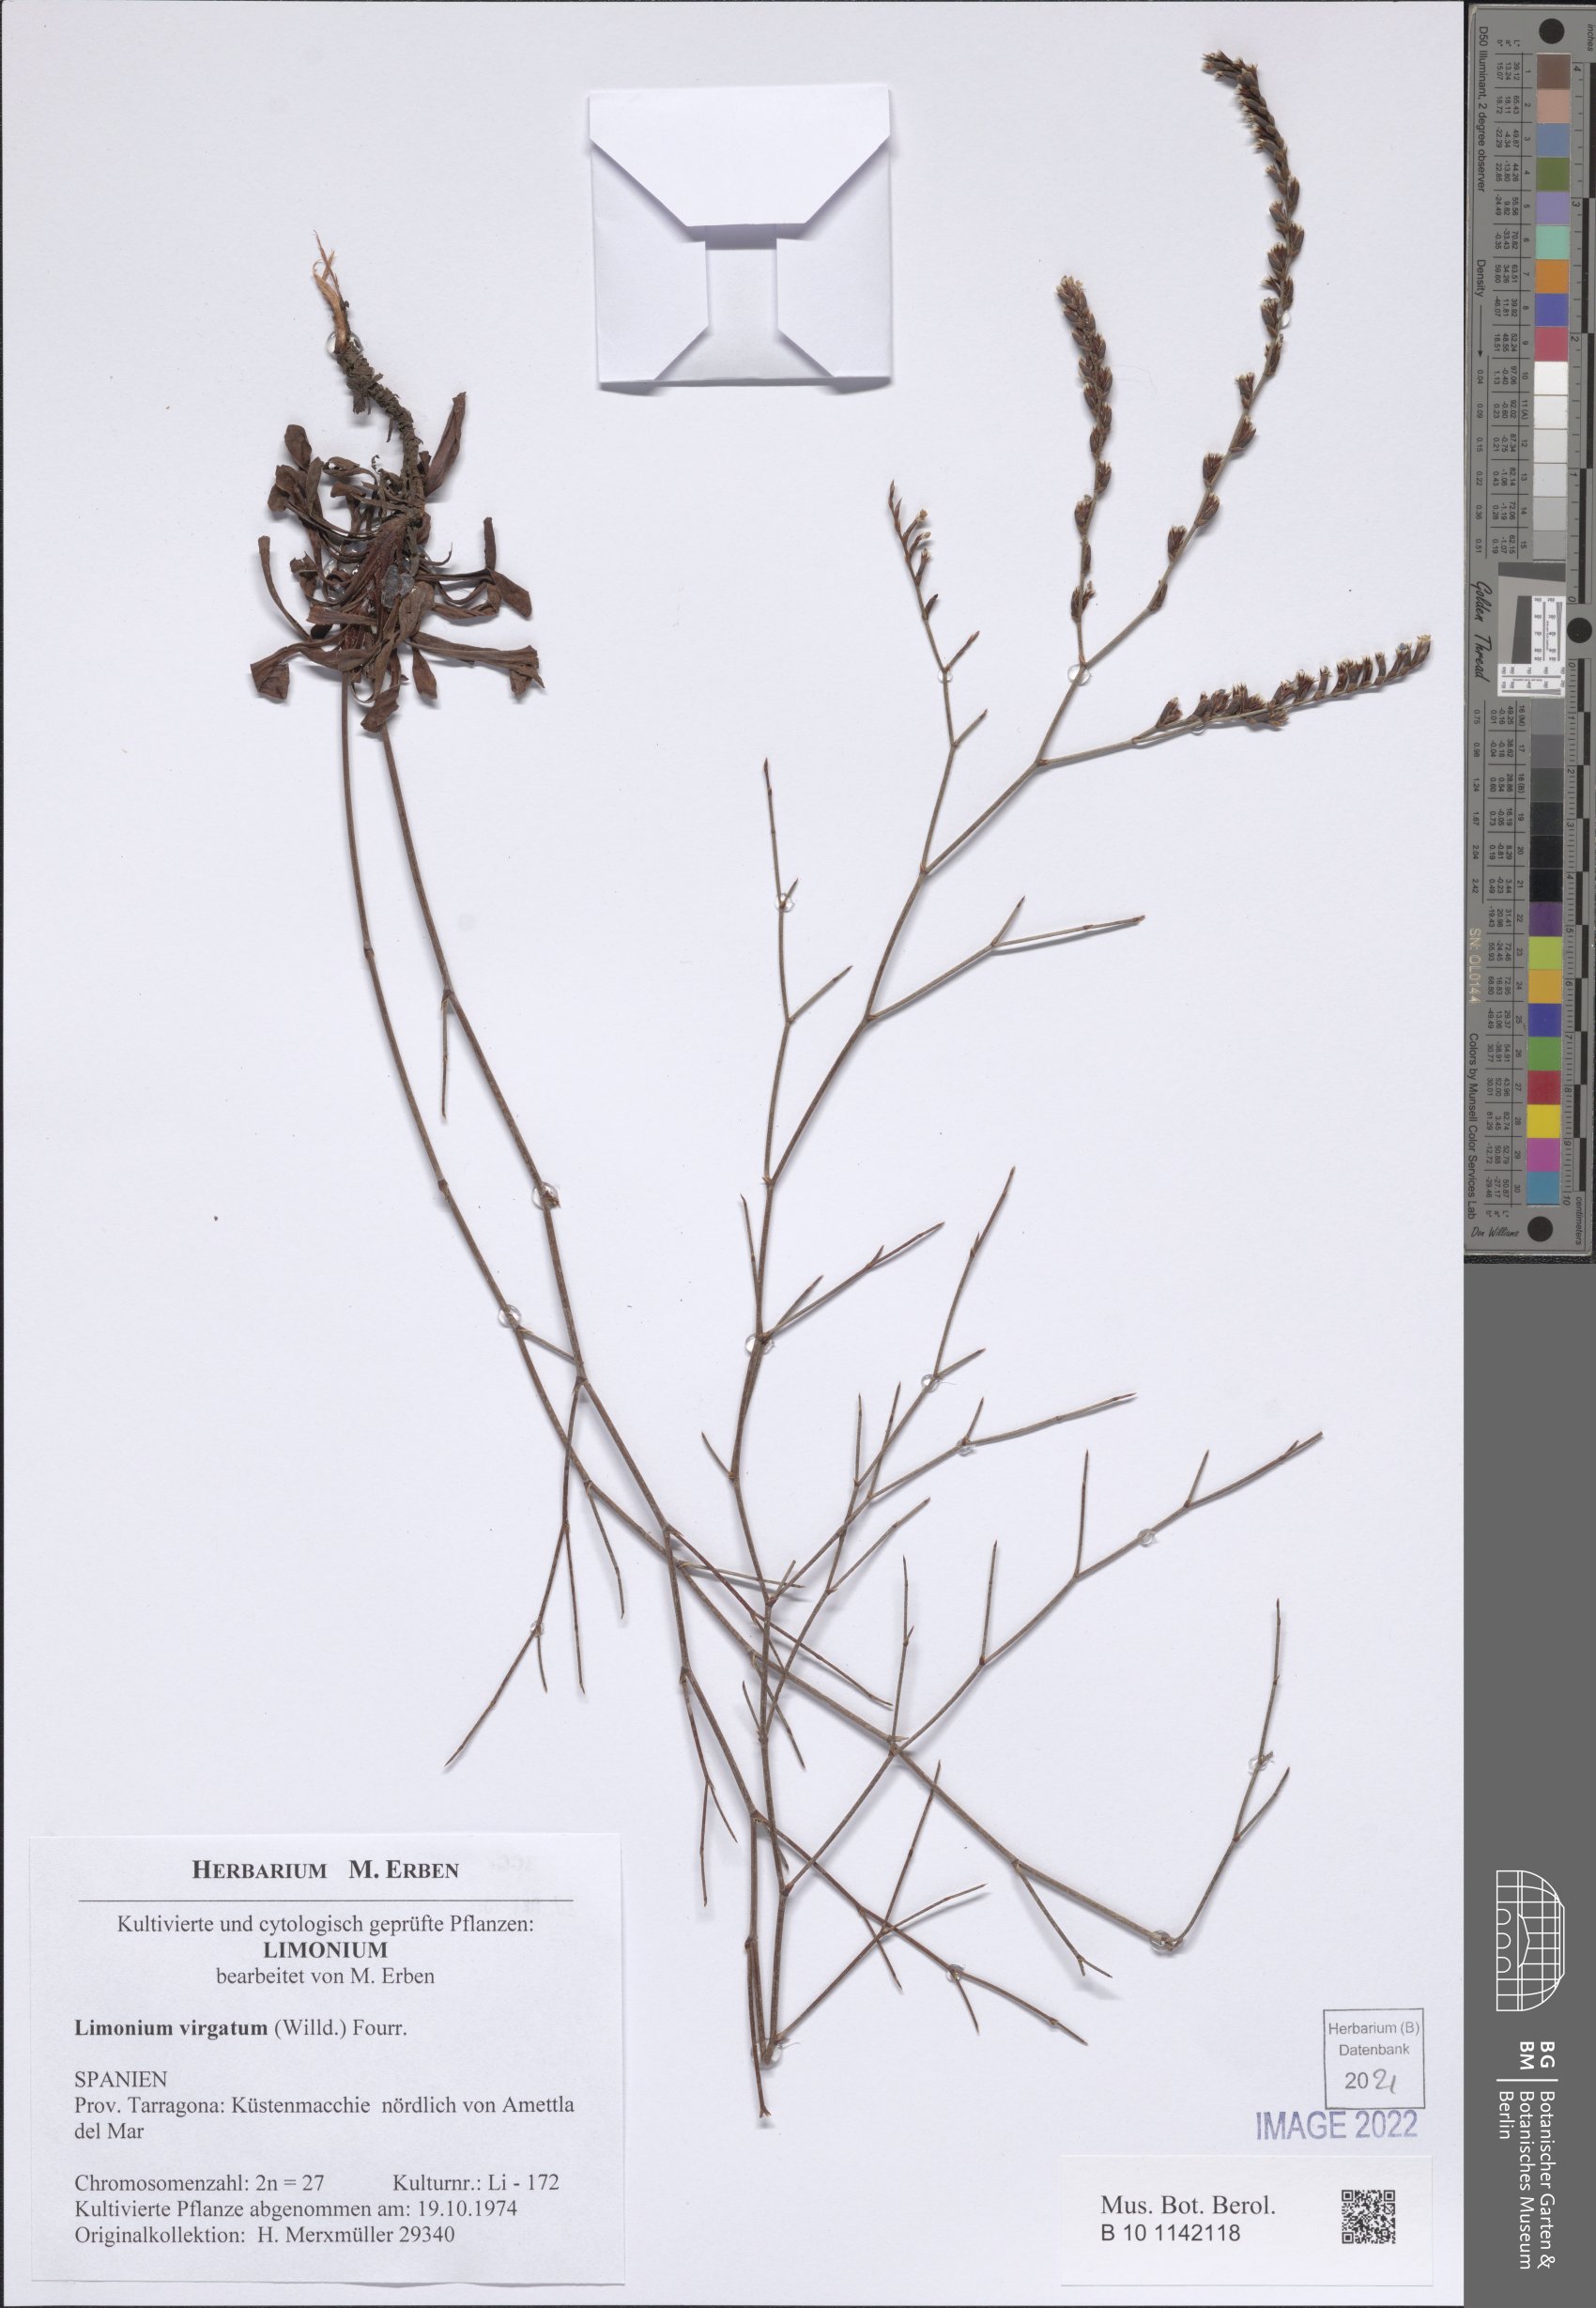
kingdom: Plantae
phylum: Tracheophyta
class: Magnoliopsida
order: Caryophyllales
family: Plumbaginaceae
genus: Limonium
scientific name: Limonium virgatum
